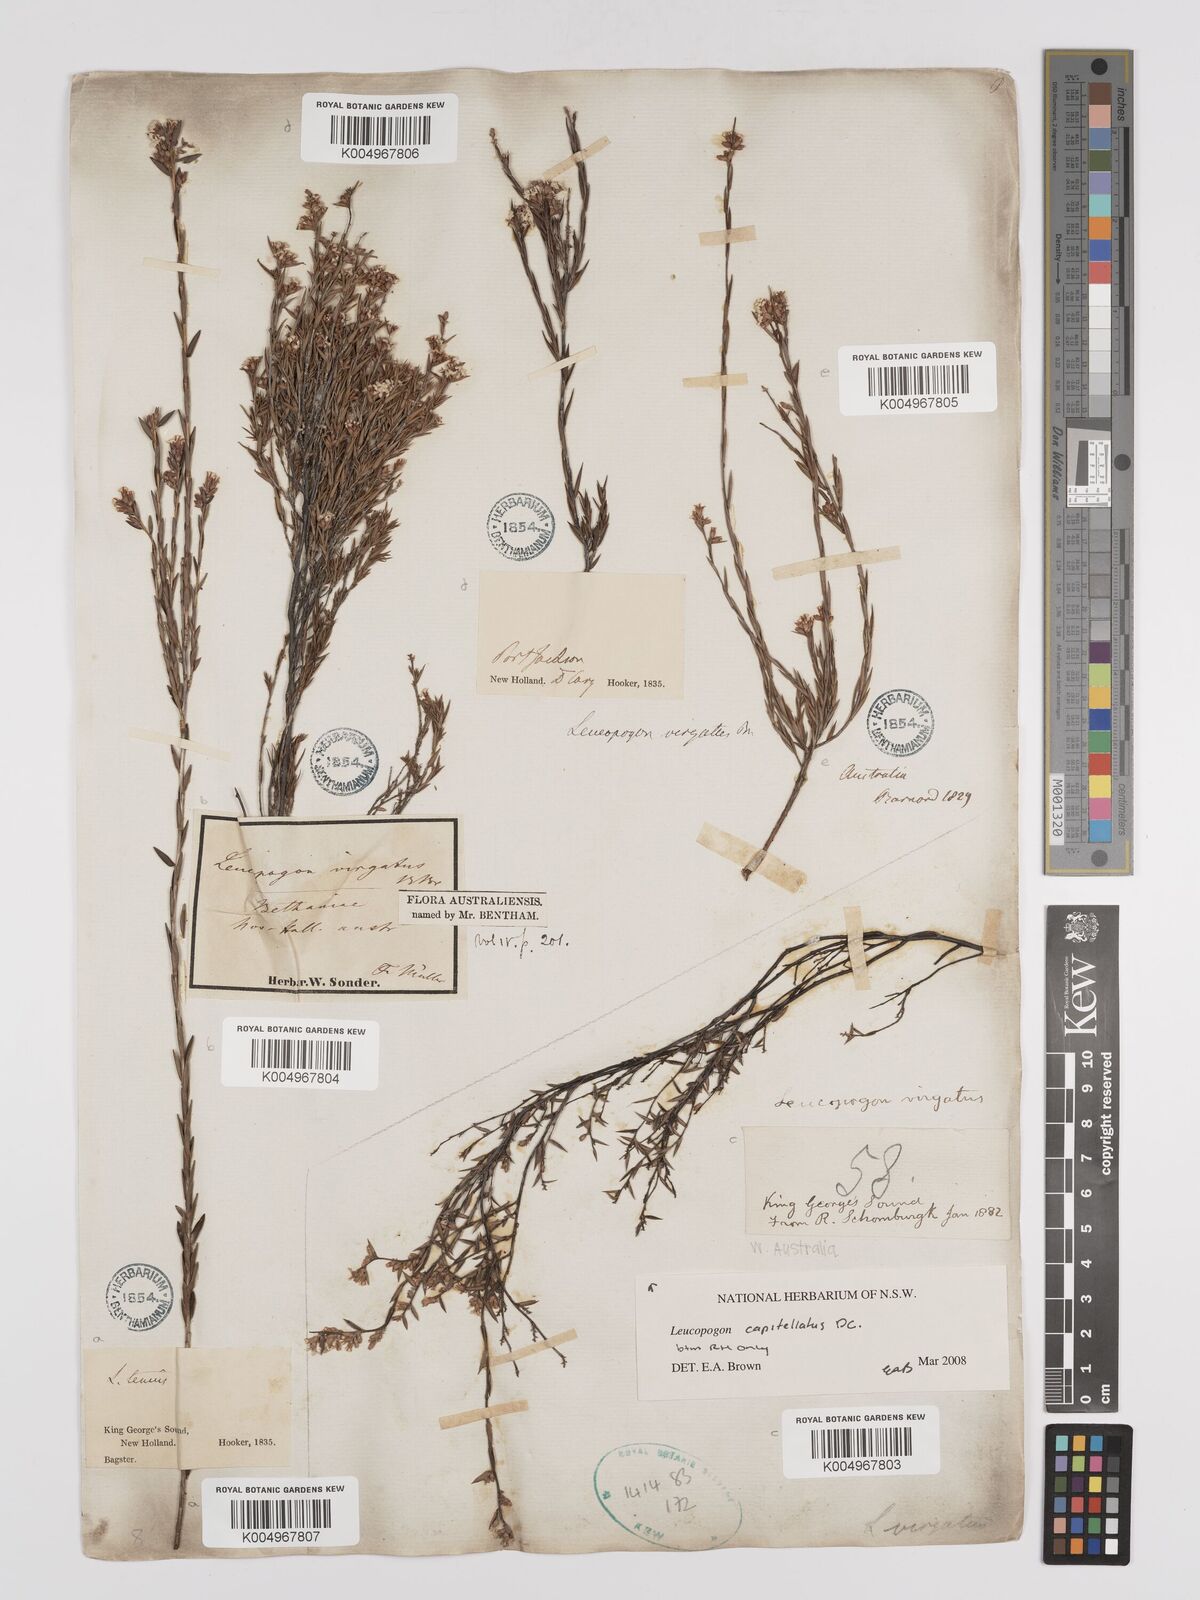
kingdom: Plantae
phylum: Tracheophyta
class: Magnoliopsida
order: Ericales
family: Ericaceae
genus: Leucopogon
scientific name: Leucopogon
